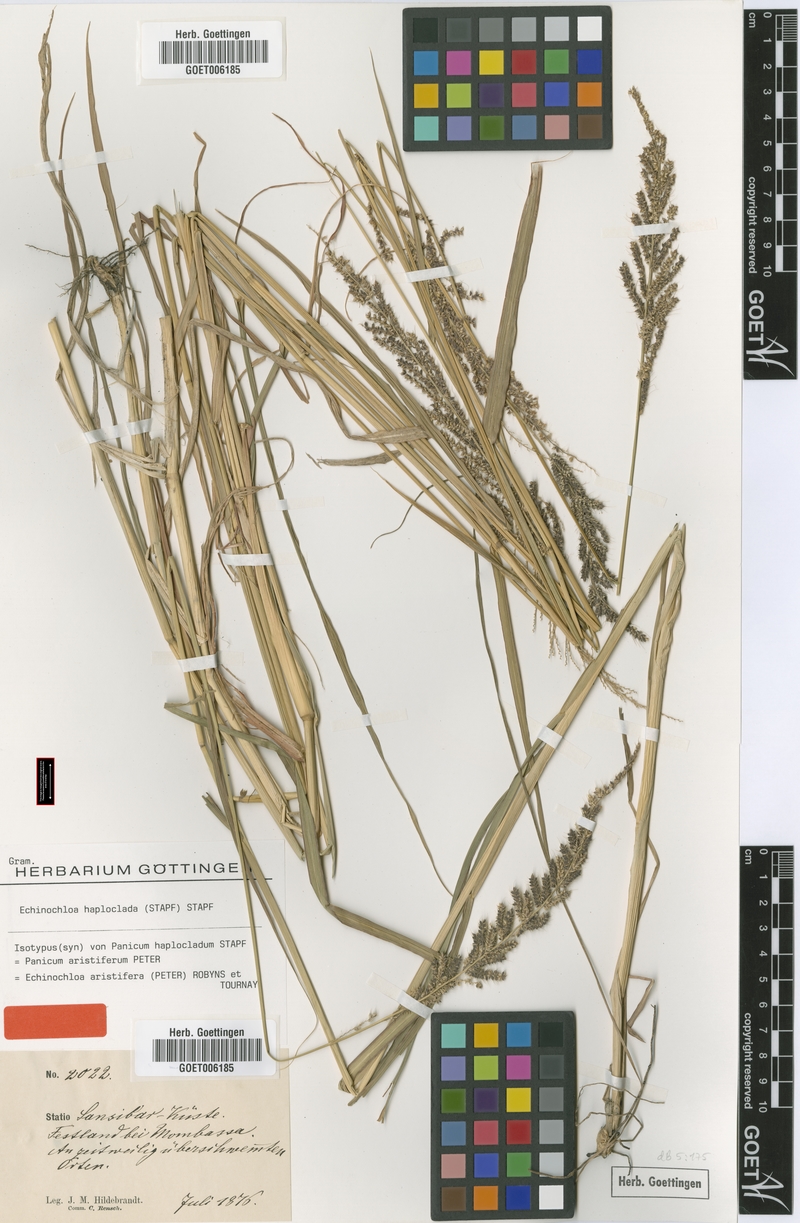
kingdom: Plantae
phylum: Tracheophyta
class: Liliopsida
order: Poales
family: Poaceae
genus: Echinochloa
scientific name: Echinochloa haploclada
